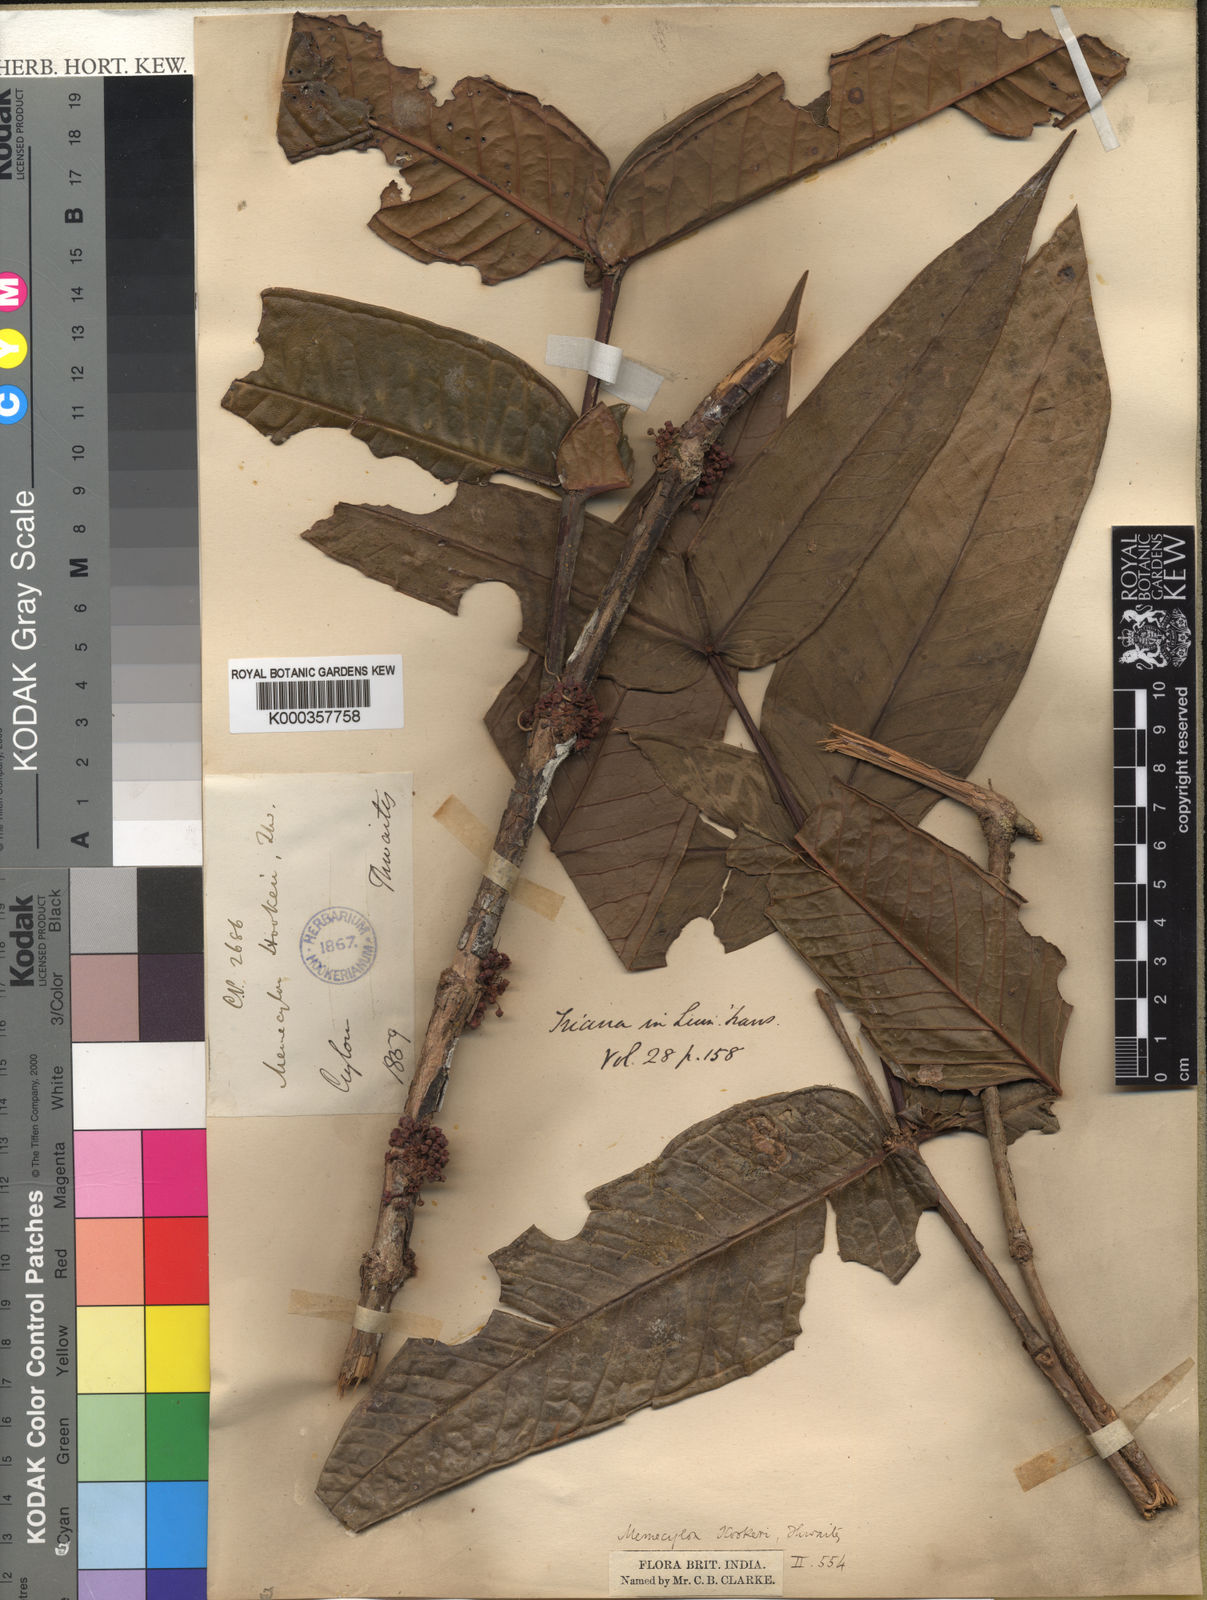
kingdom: Plantae
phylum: Tracheophyta
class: Magnoliopsida
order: Myrtales
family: Melastomataceae
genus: Memecylon
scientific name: Memecylon hookeri
